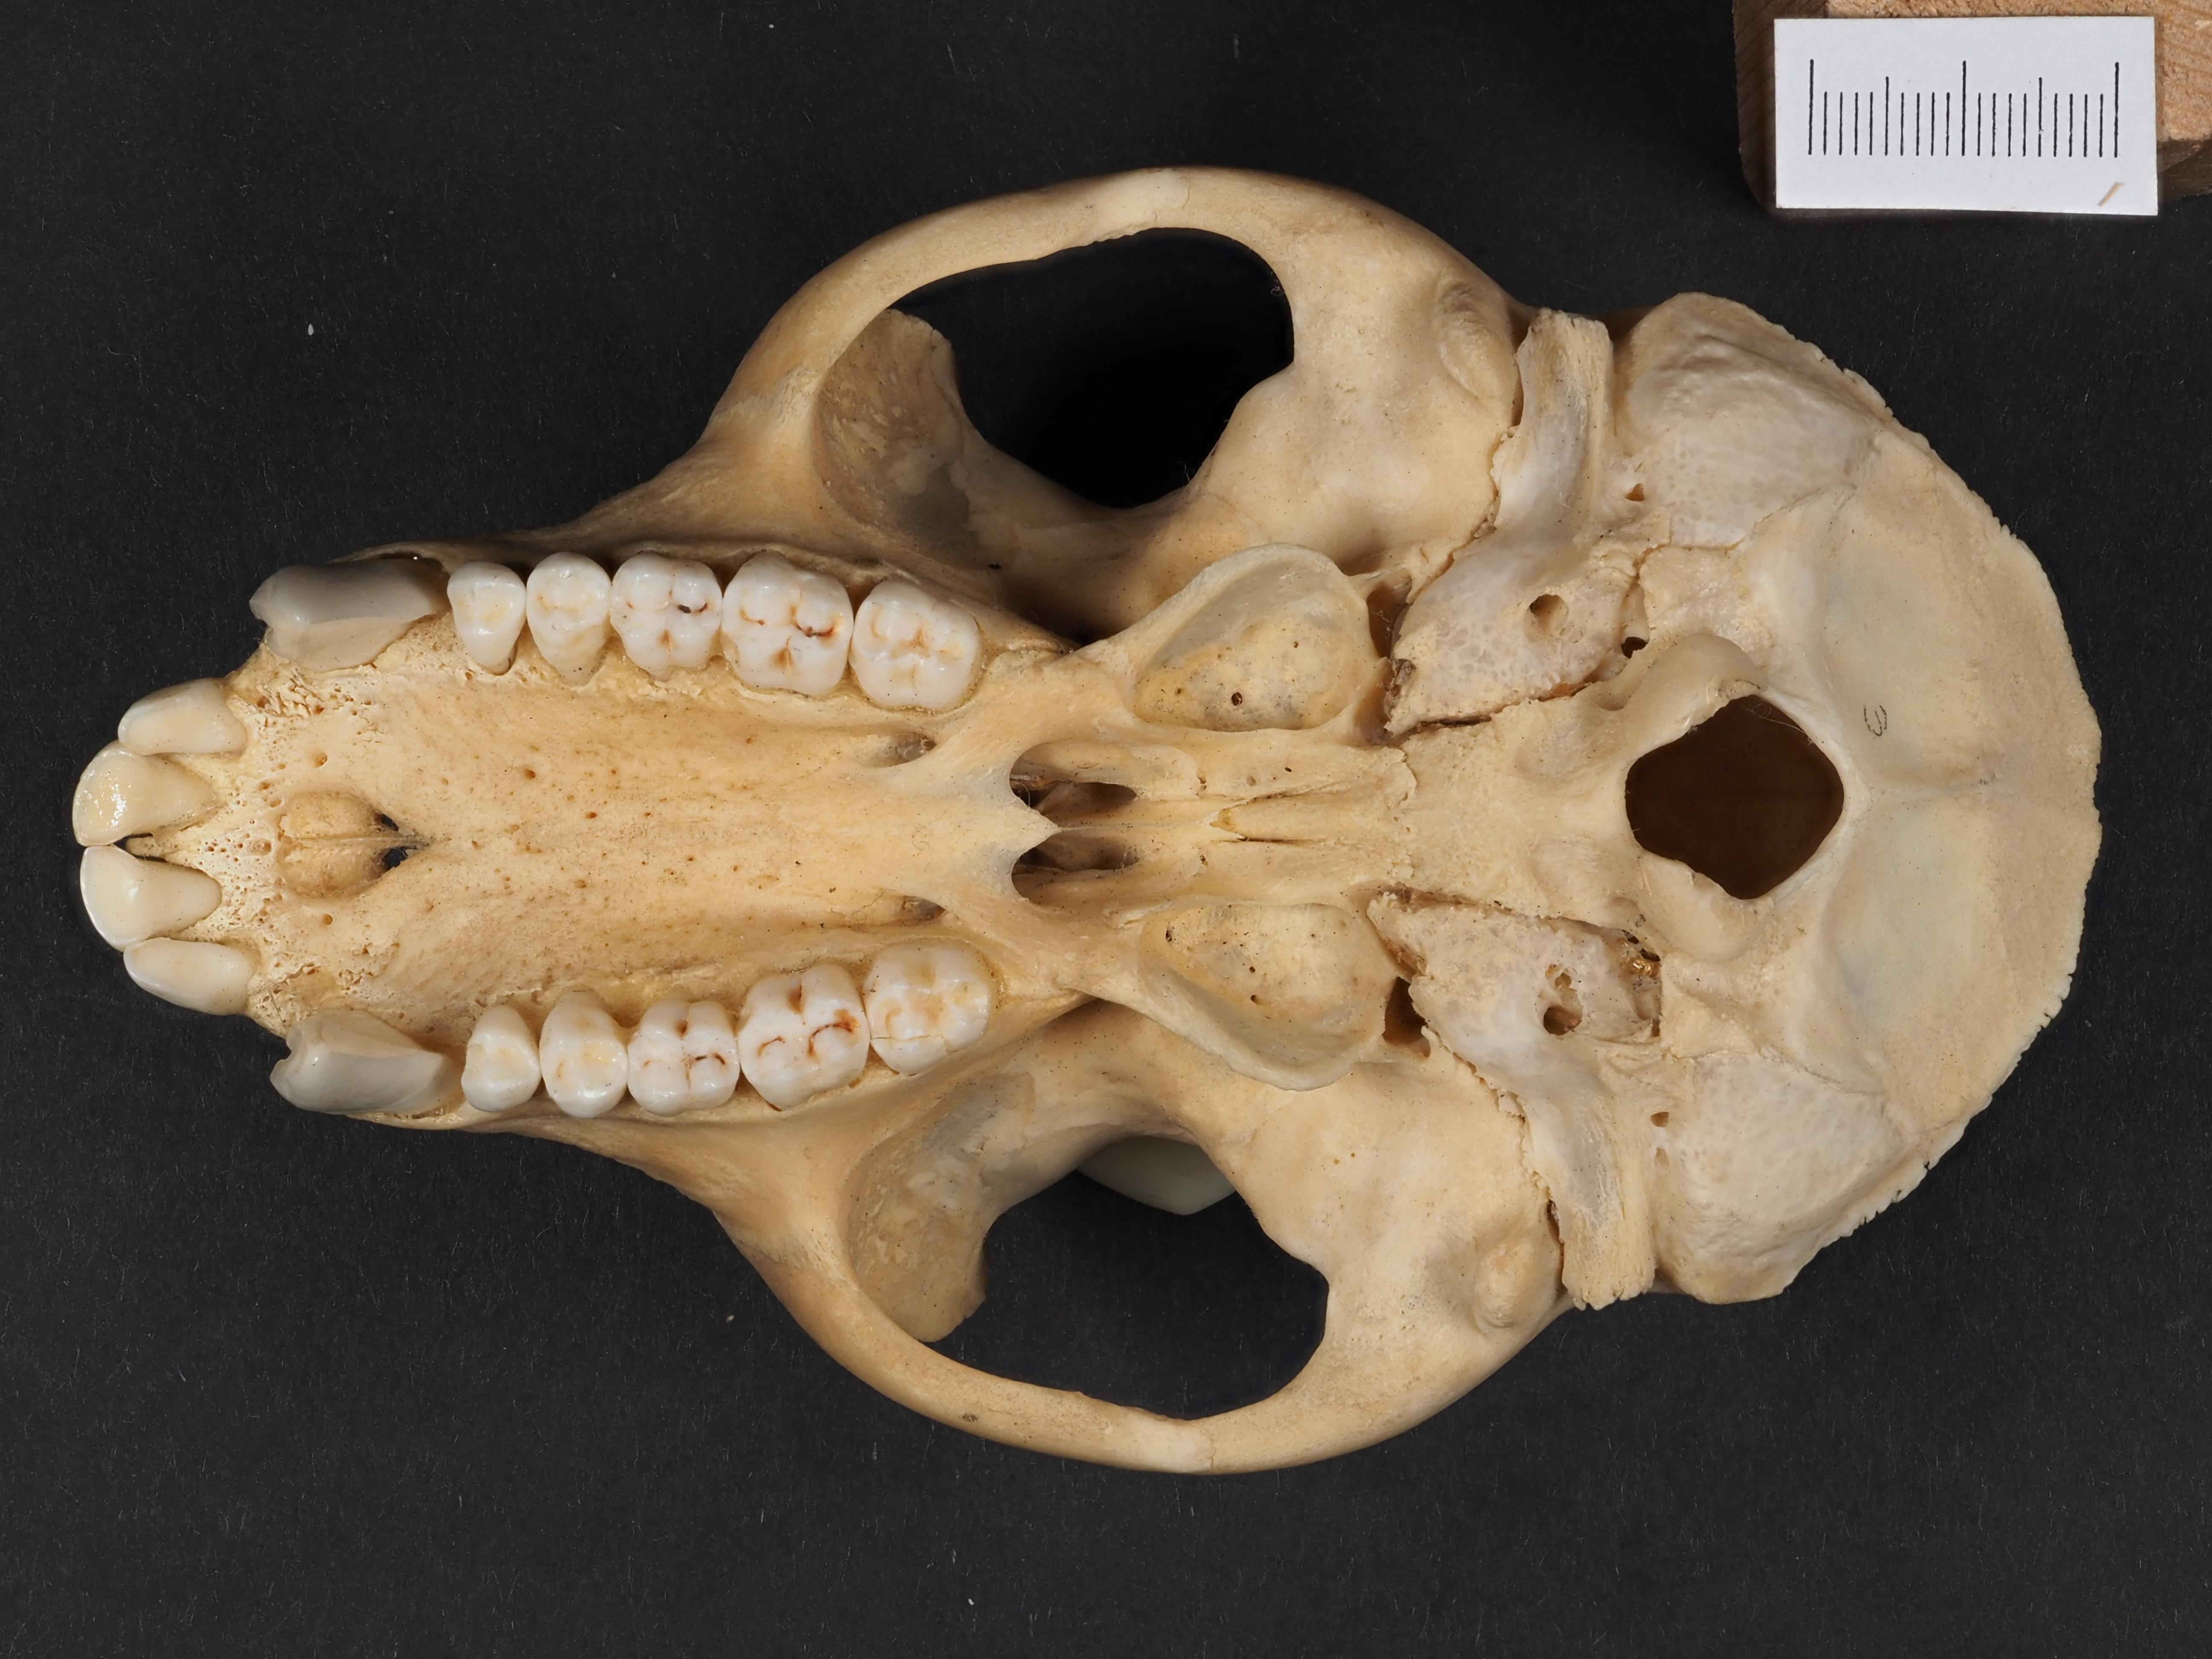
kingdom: Animalia
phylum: Chordata
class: Mammalia
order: Primates
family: Cercopithecidae
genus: Macaca
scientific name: Macaca sylvanus
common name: Barbary macaque
